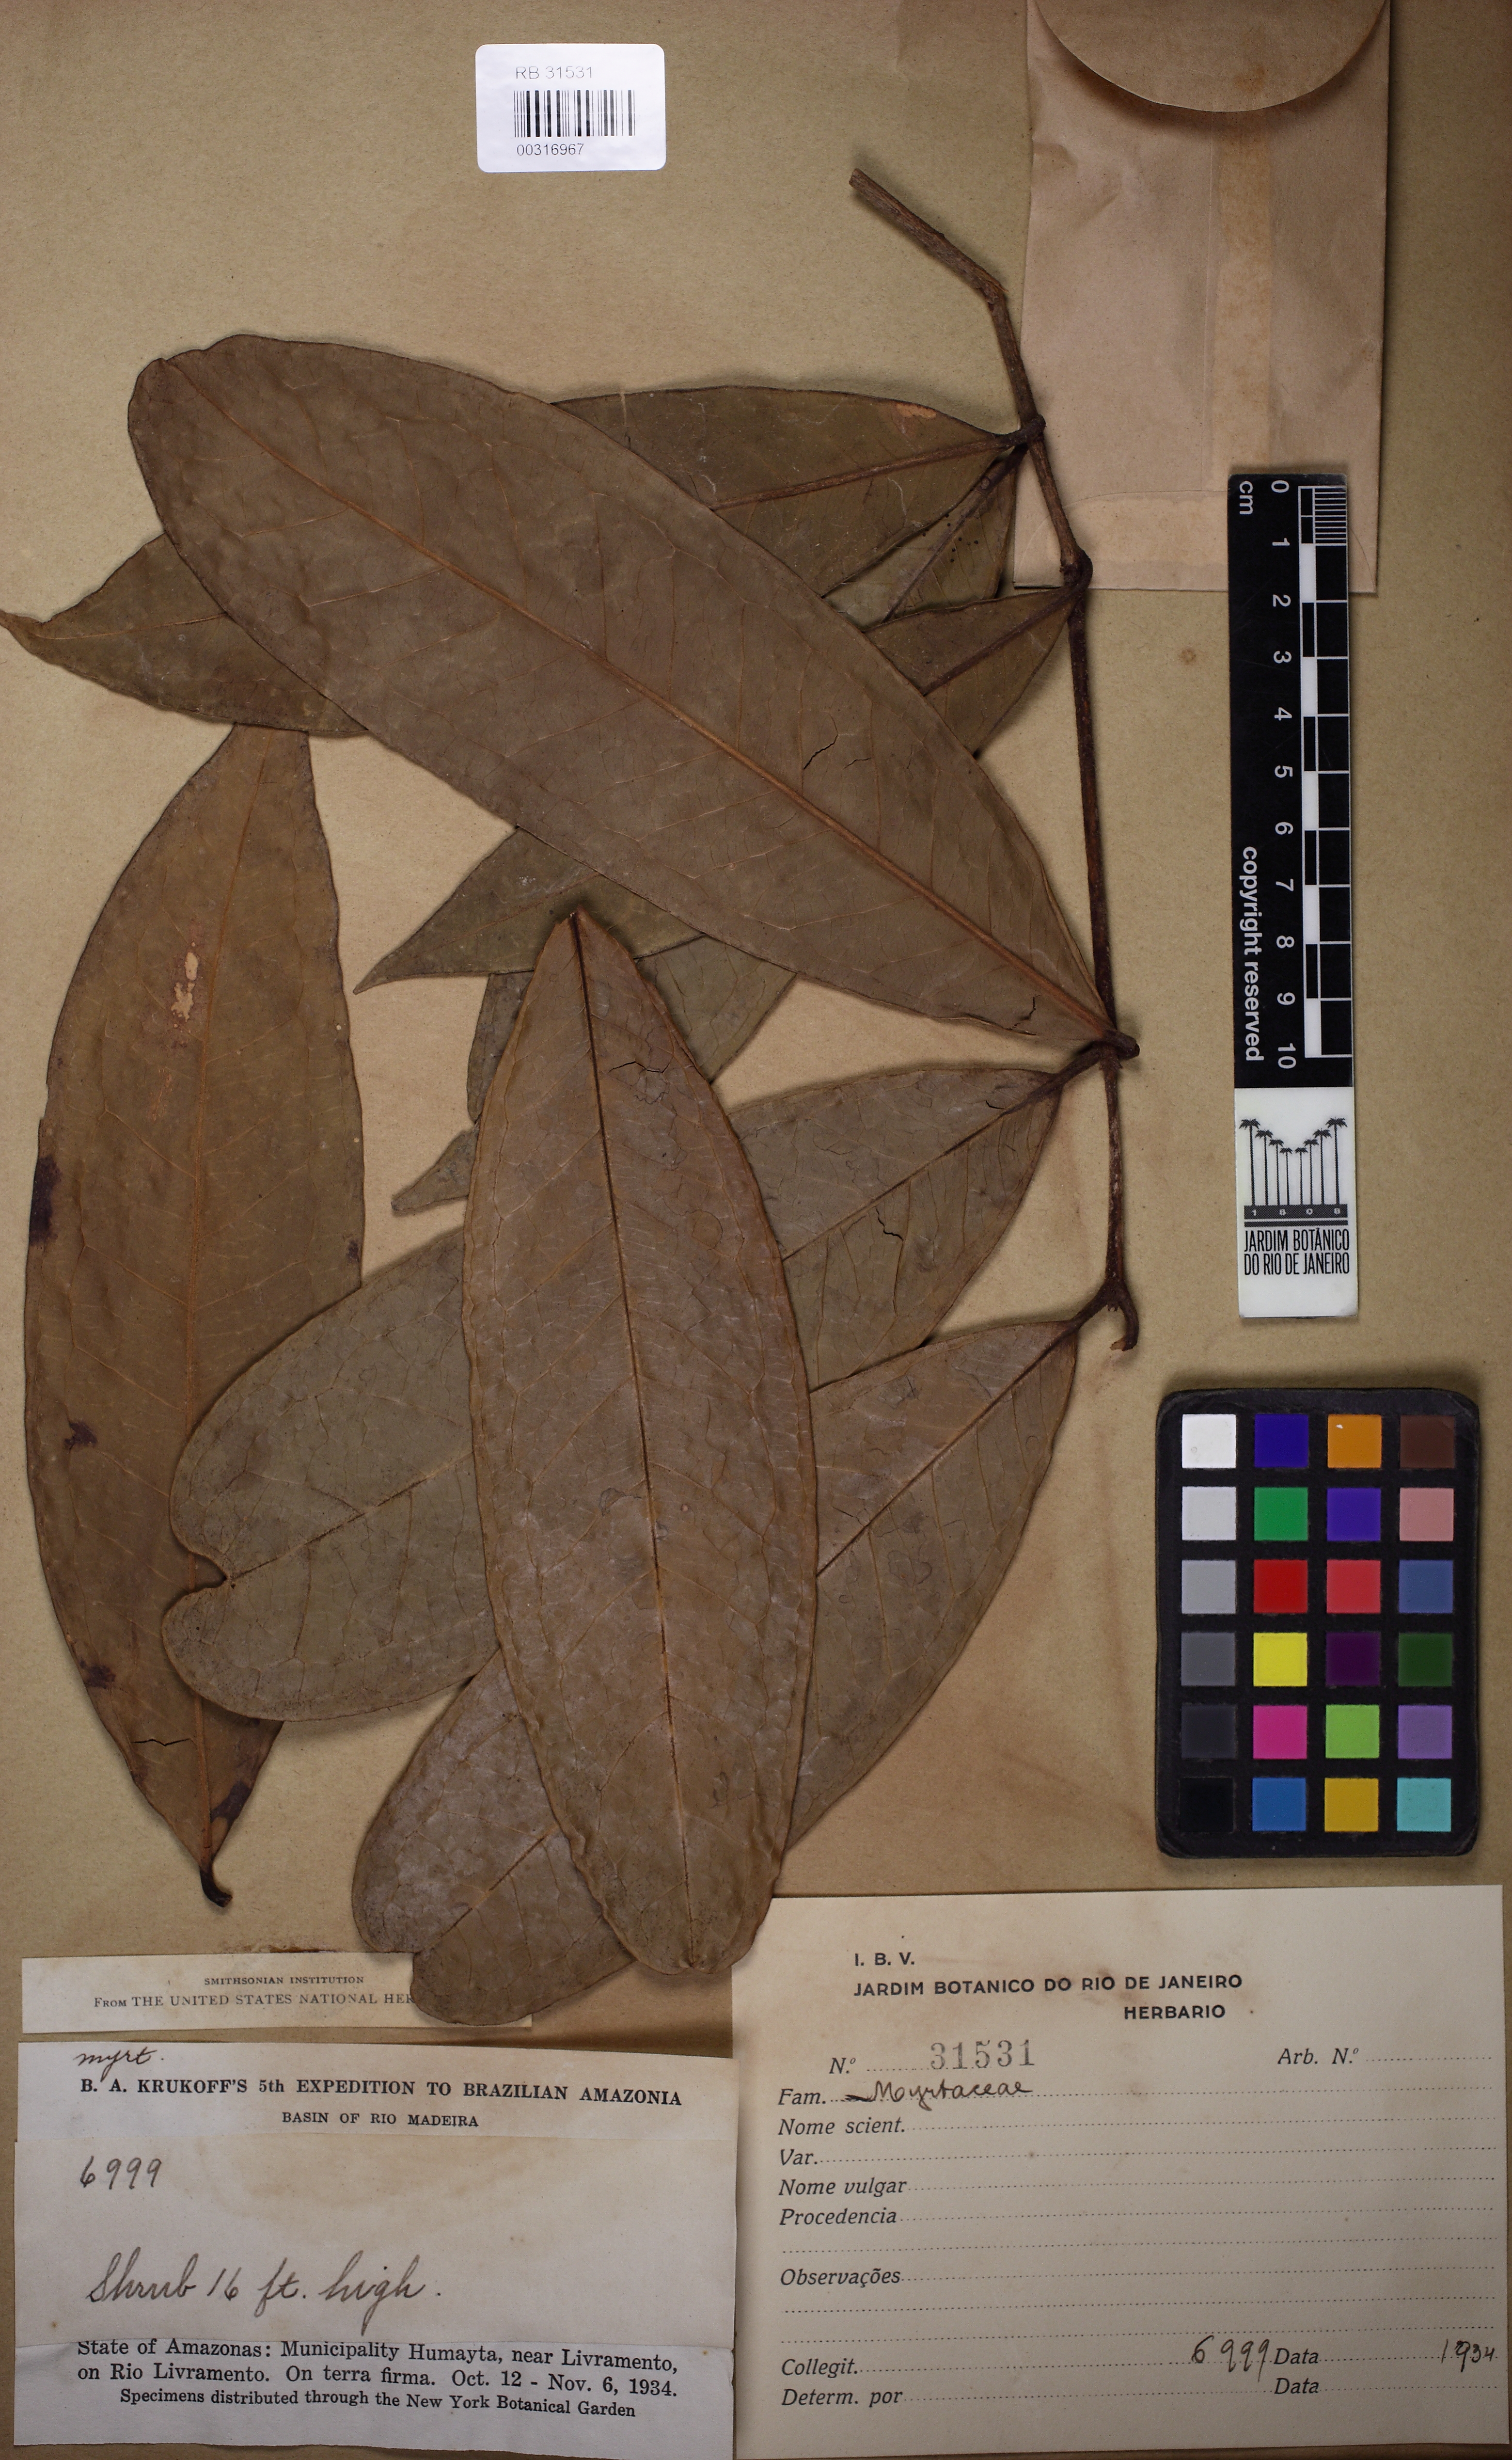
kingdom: Plantae
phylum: Tracheophyta
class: Magnoliopsida
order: Myrtales
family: Myrtaceae
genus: Eugenia
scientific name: Eugenia gomesiana
